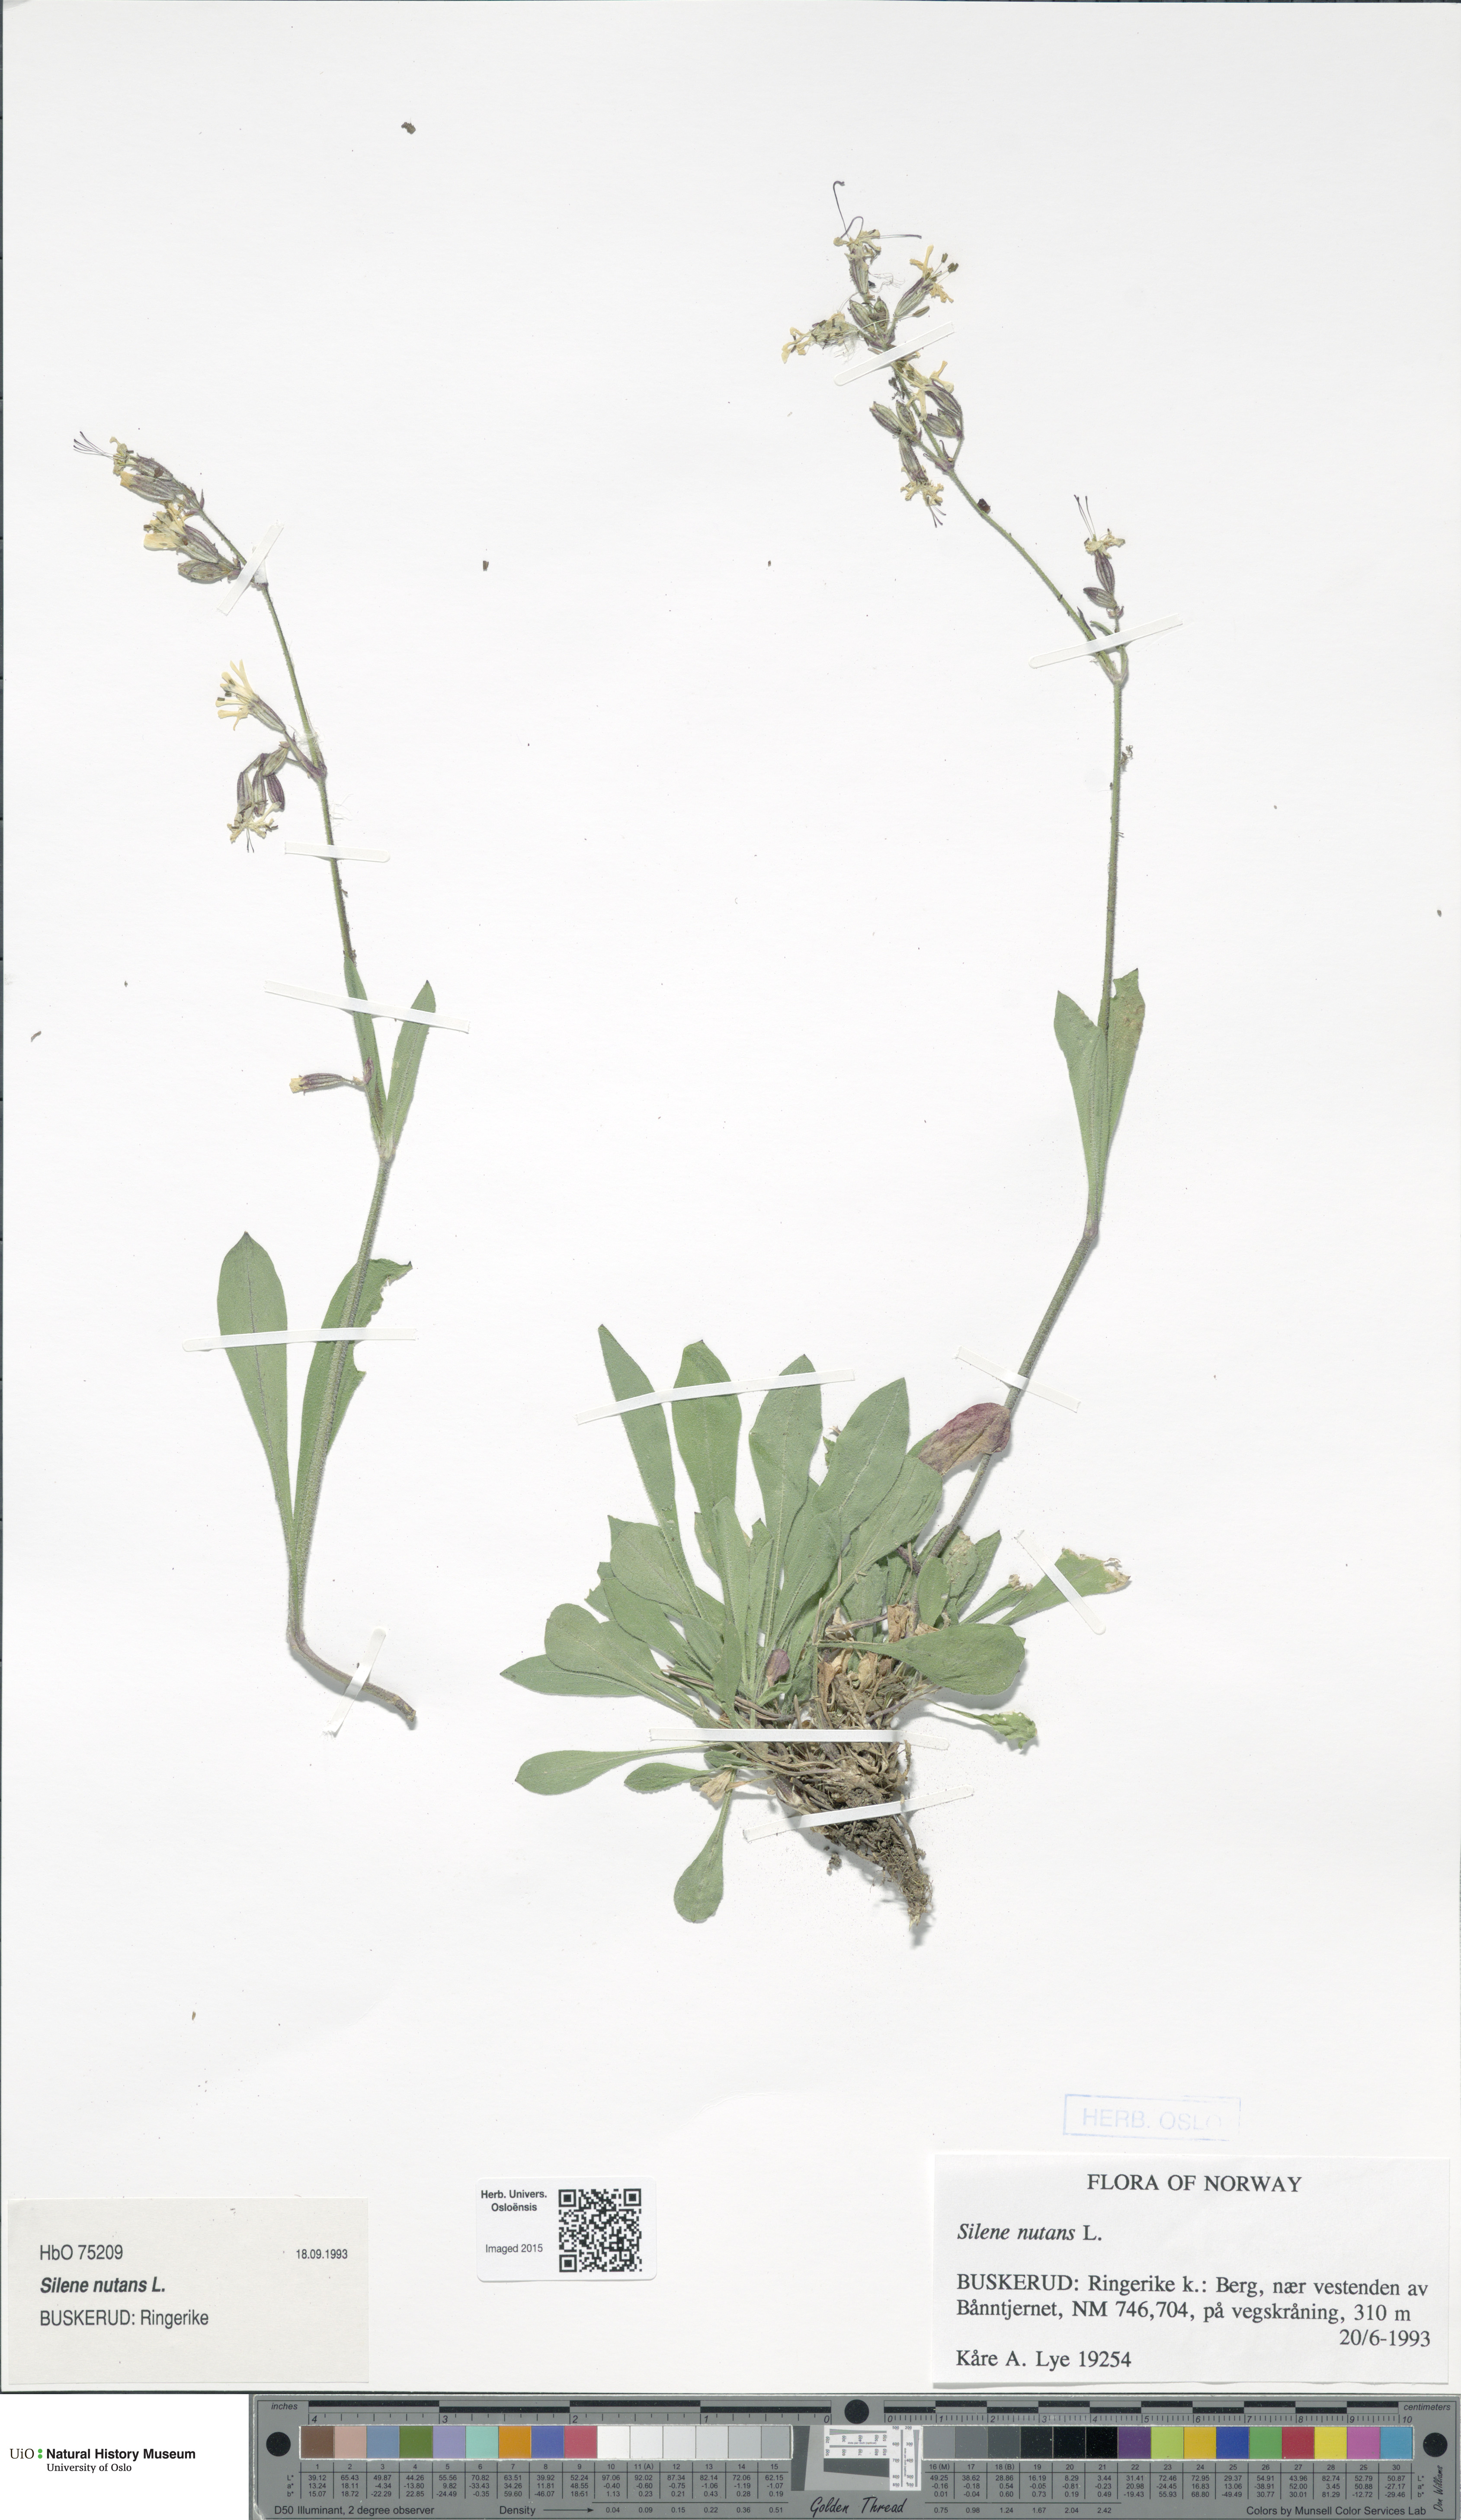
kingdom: Plantae
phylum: Tracheophyta
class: Magnoliopsida
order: Caryophyllales
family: Caryophyllaceae
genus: Silene
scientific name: Silene nutans
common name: Nottingham catchfly
